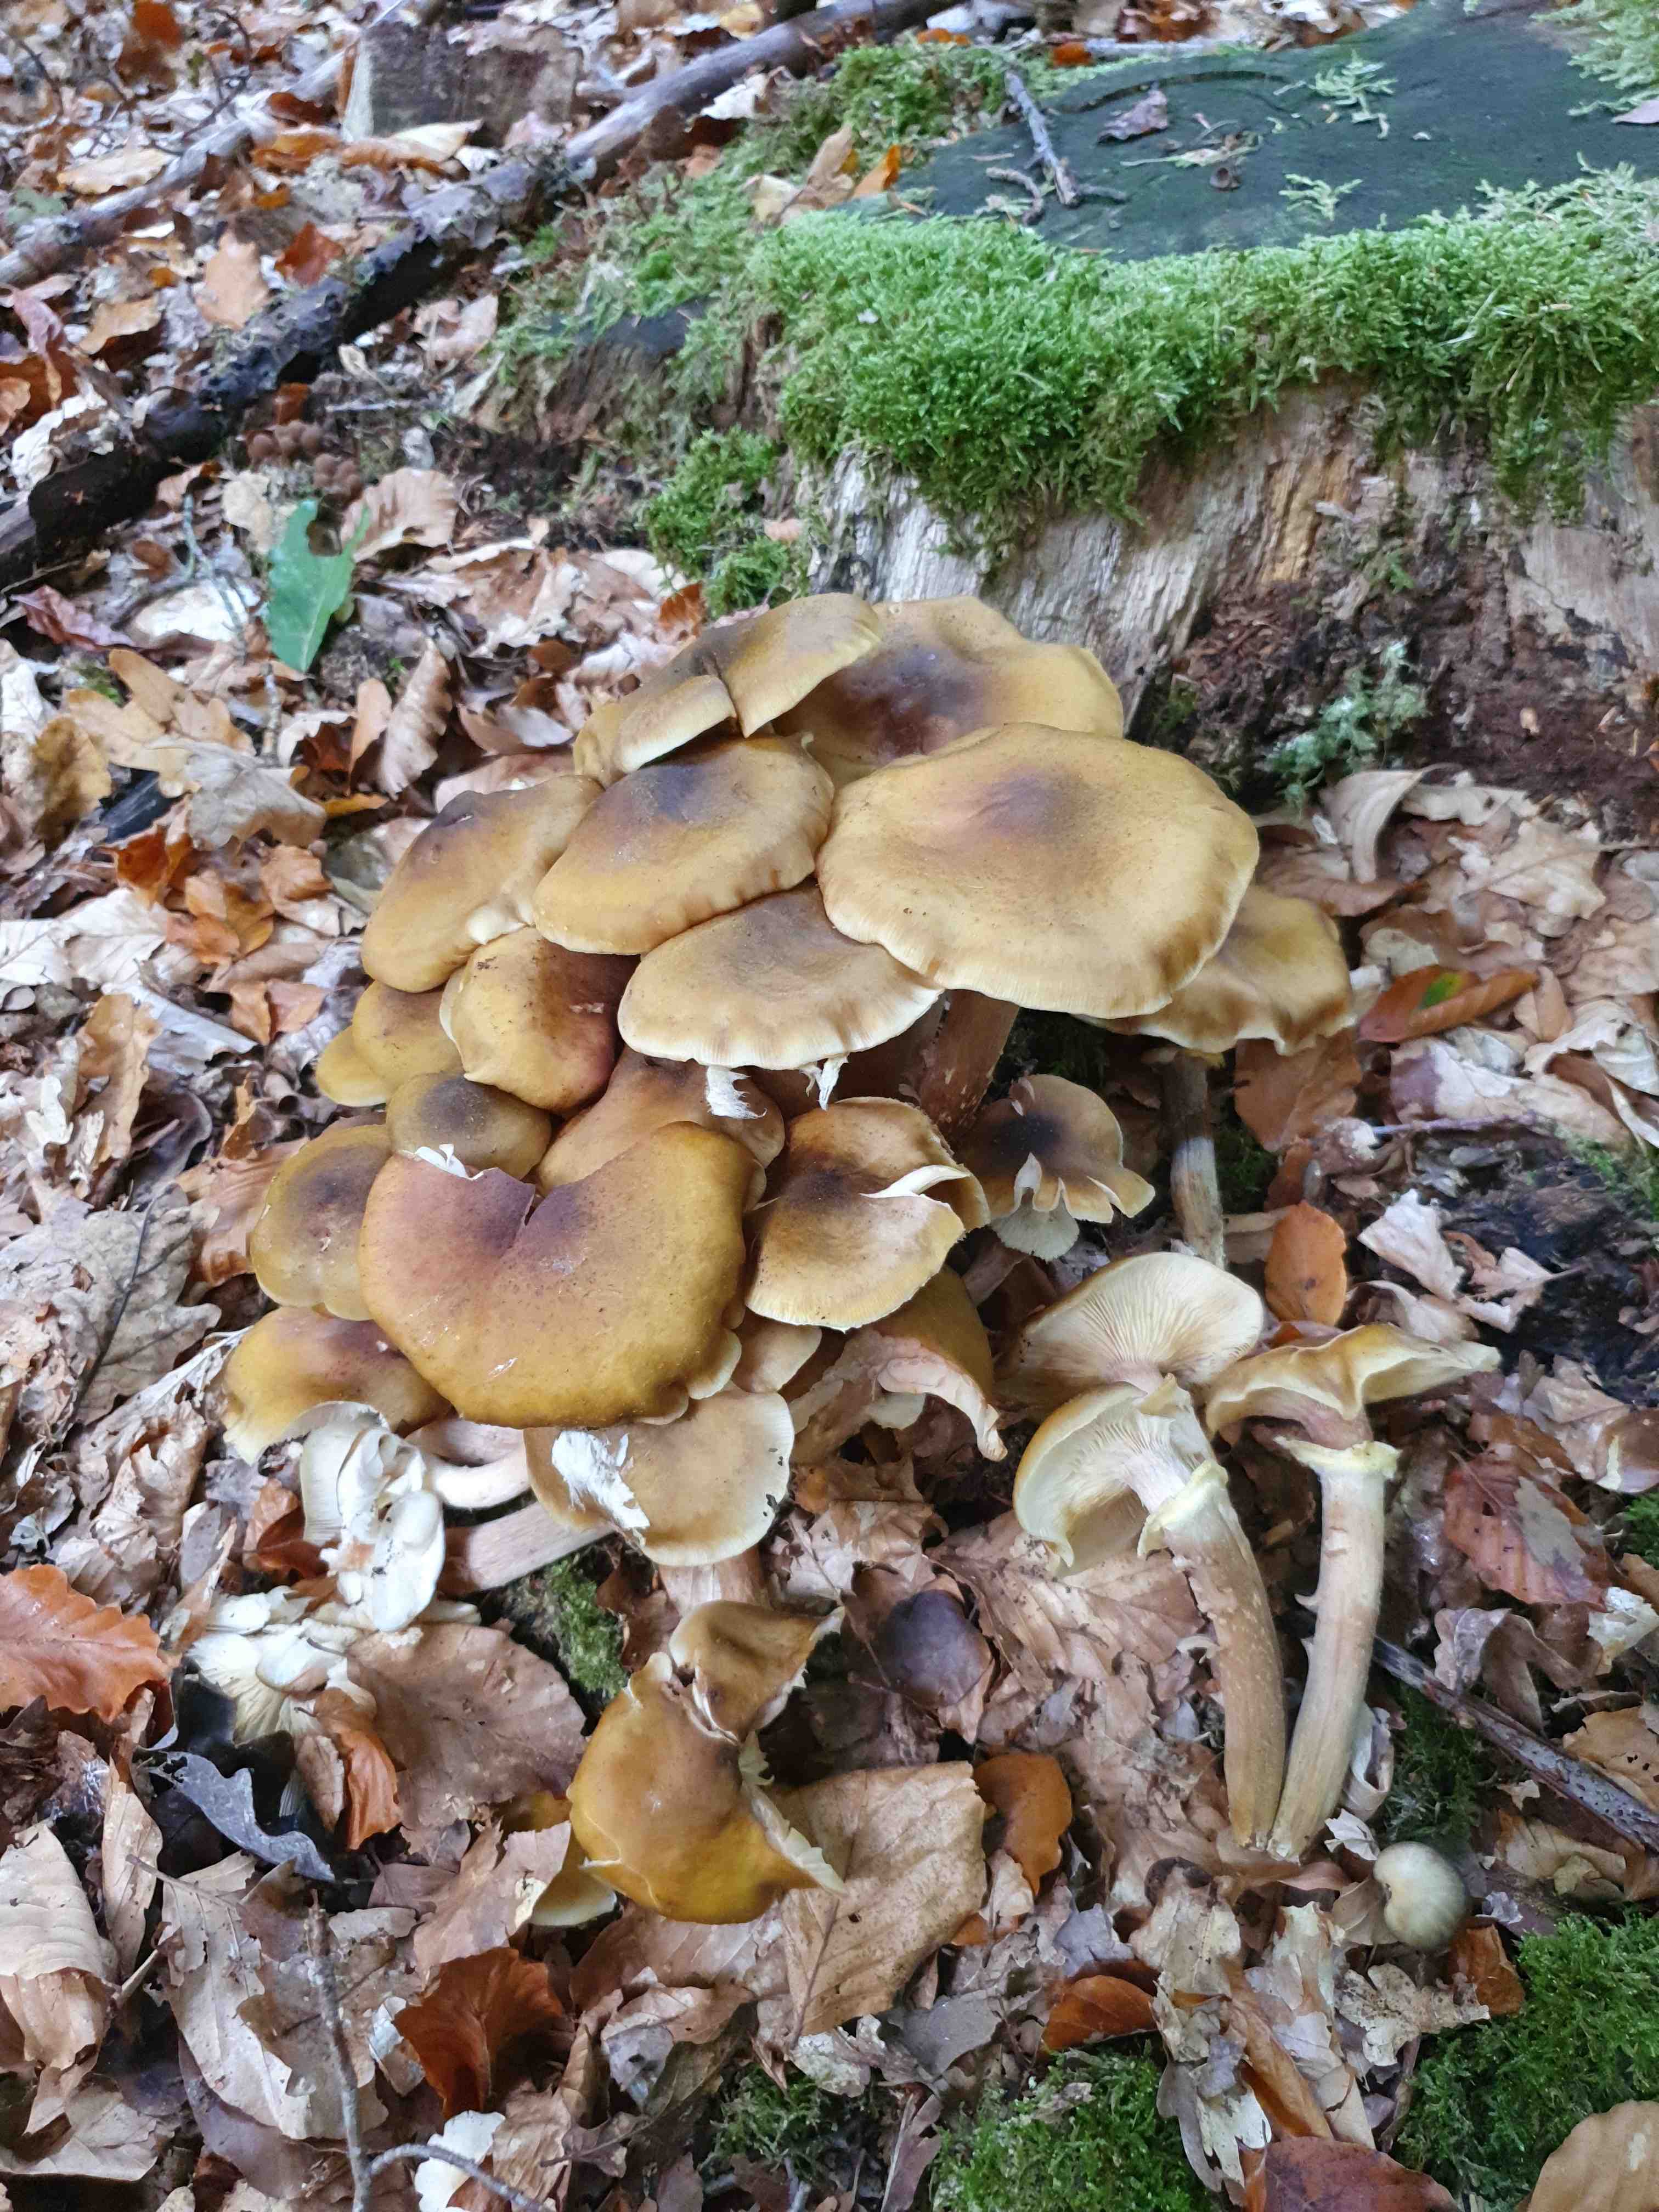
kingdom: Fungi
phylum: Basidiomycota
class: Agaricomycetes
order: Agaricales
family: Physalacriaceae
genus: Armillaria
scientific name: Armillaria mellea
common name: ægte honningsvamp
